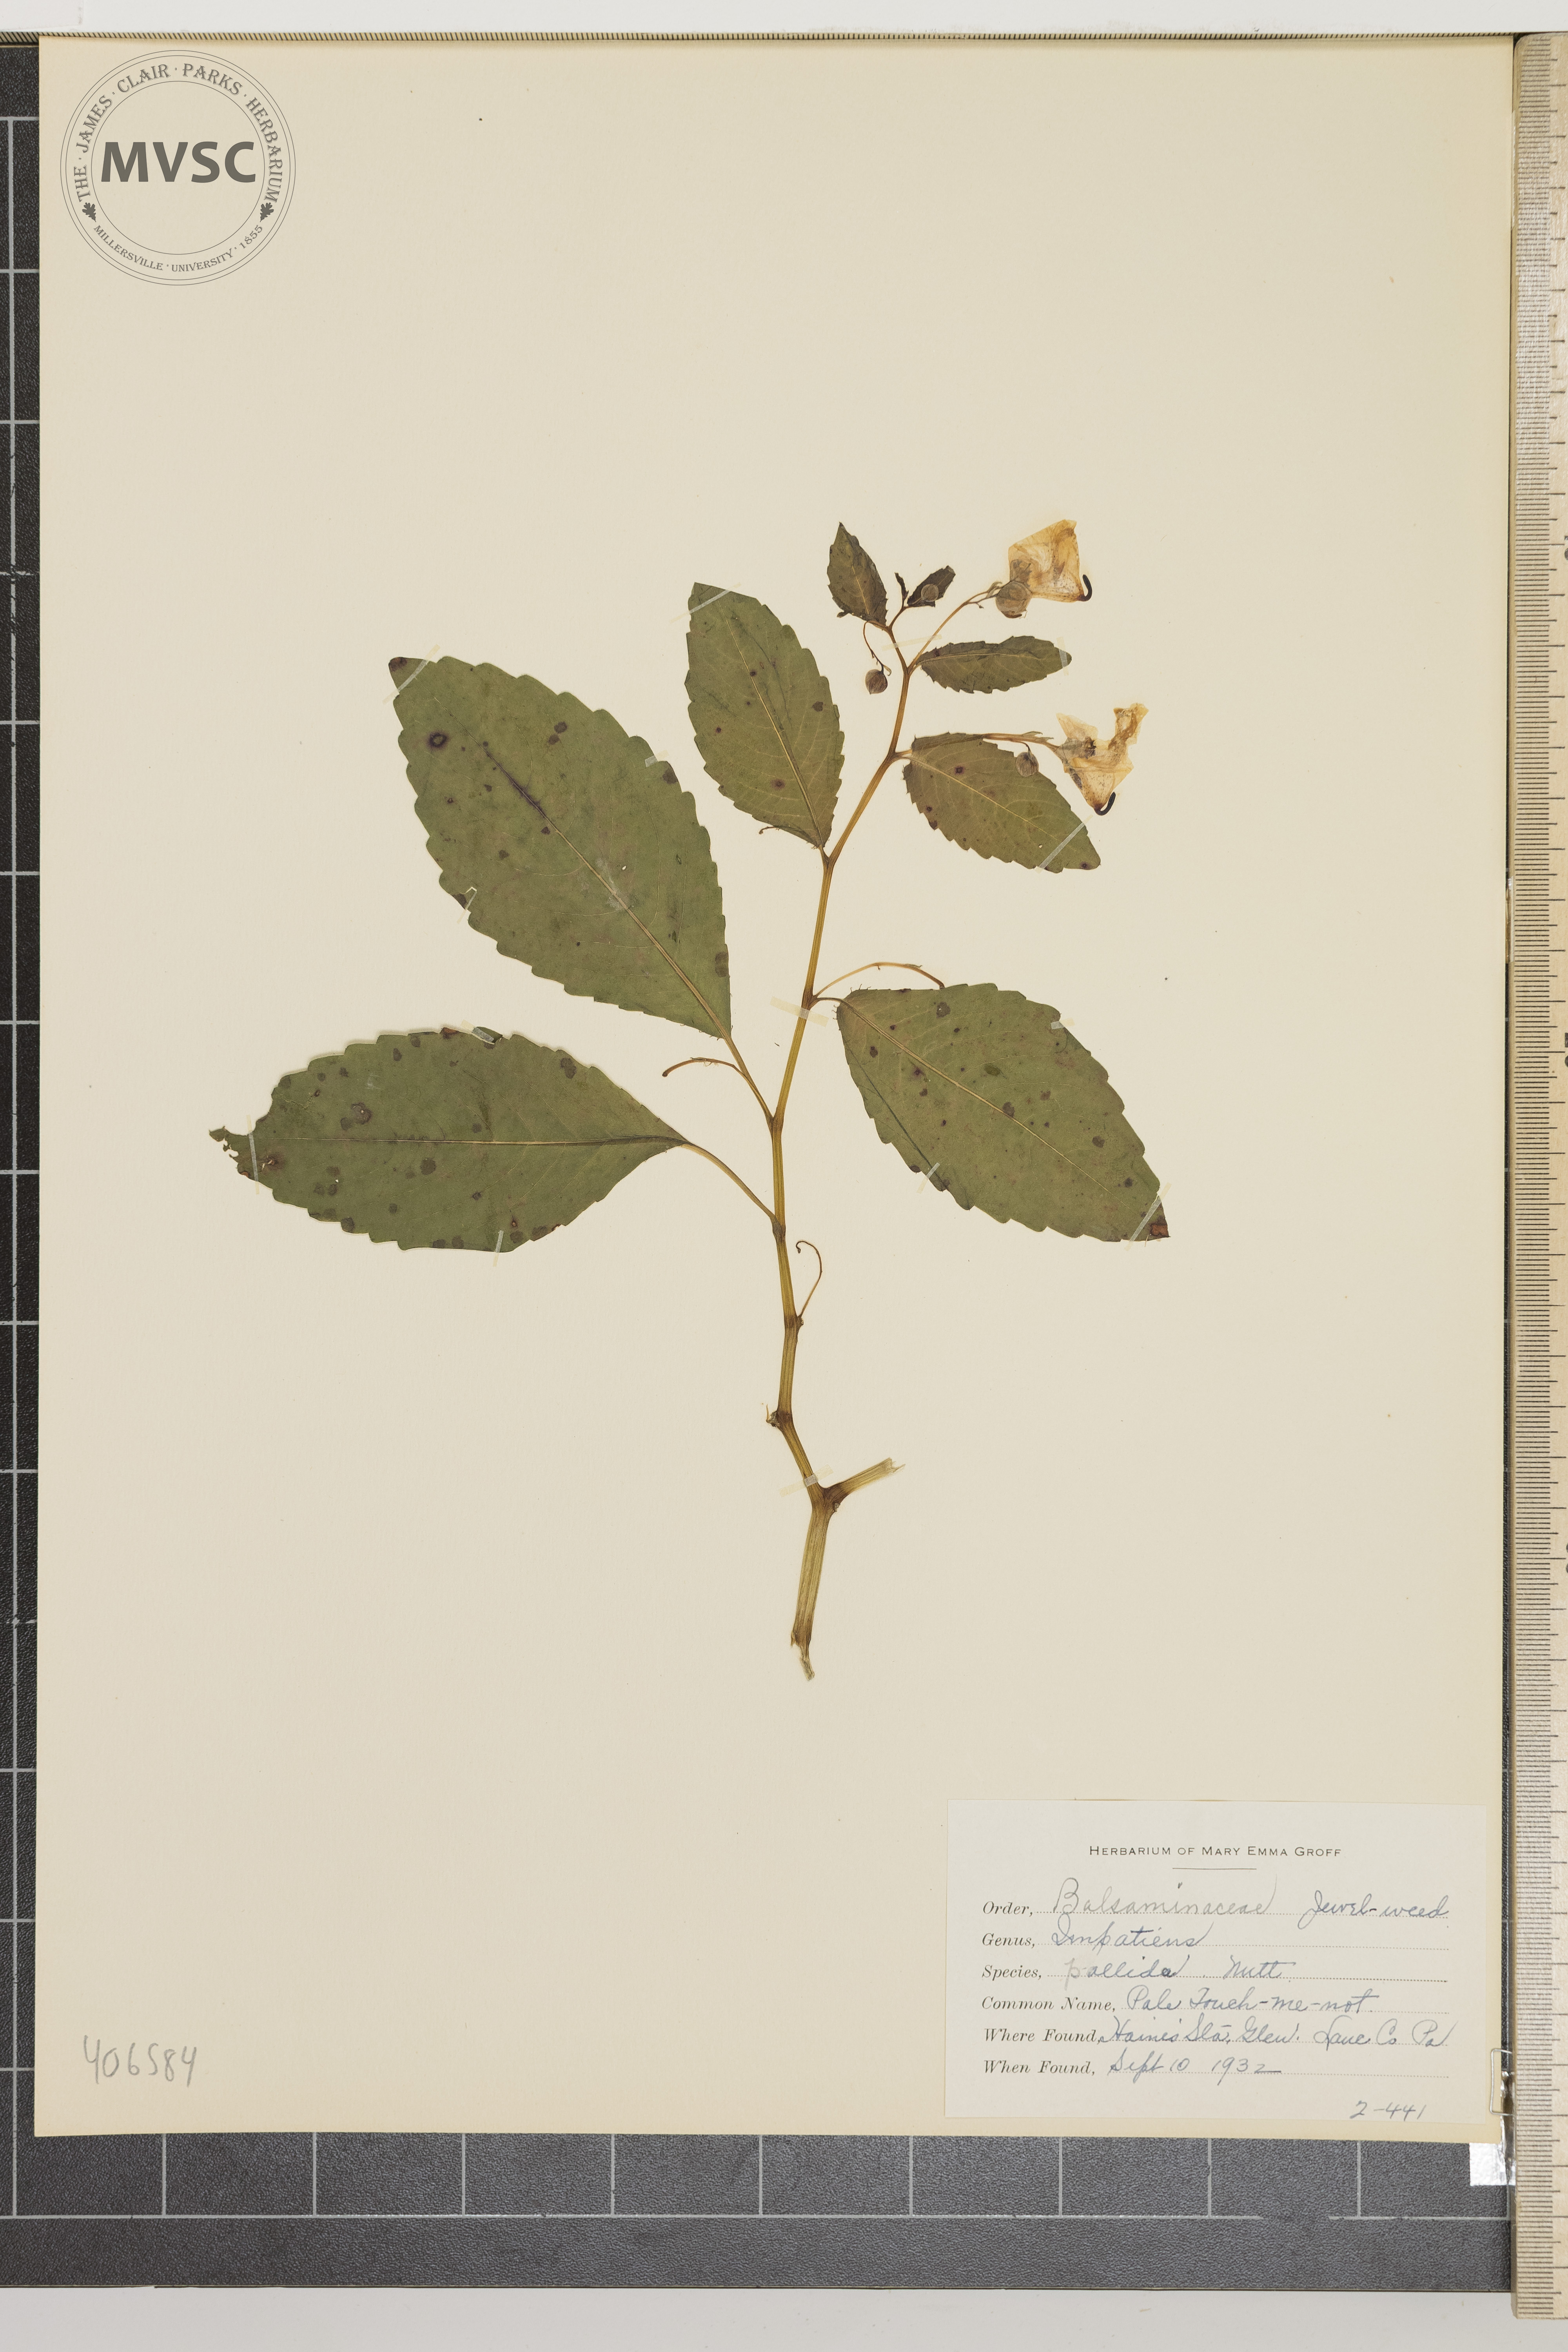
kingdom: Plantae
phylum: Tracheophyta
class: Magnoliopsida
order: Ericales
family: Balsaminaceae
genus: Impatiens
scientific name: Impatiens pallida
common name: Pale Touch-me-not
